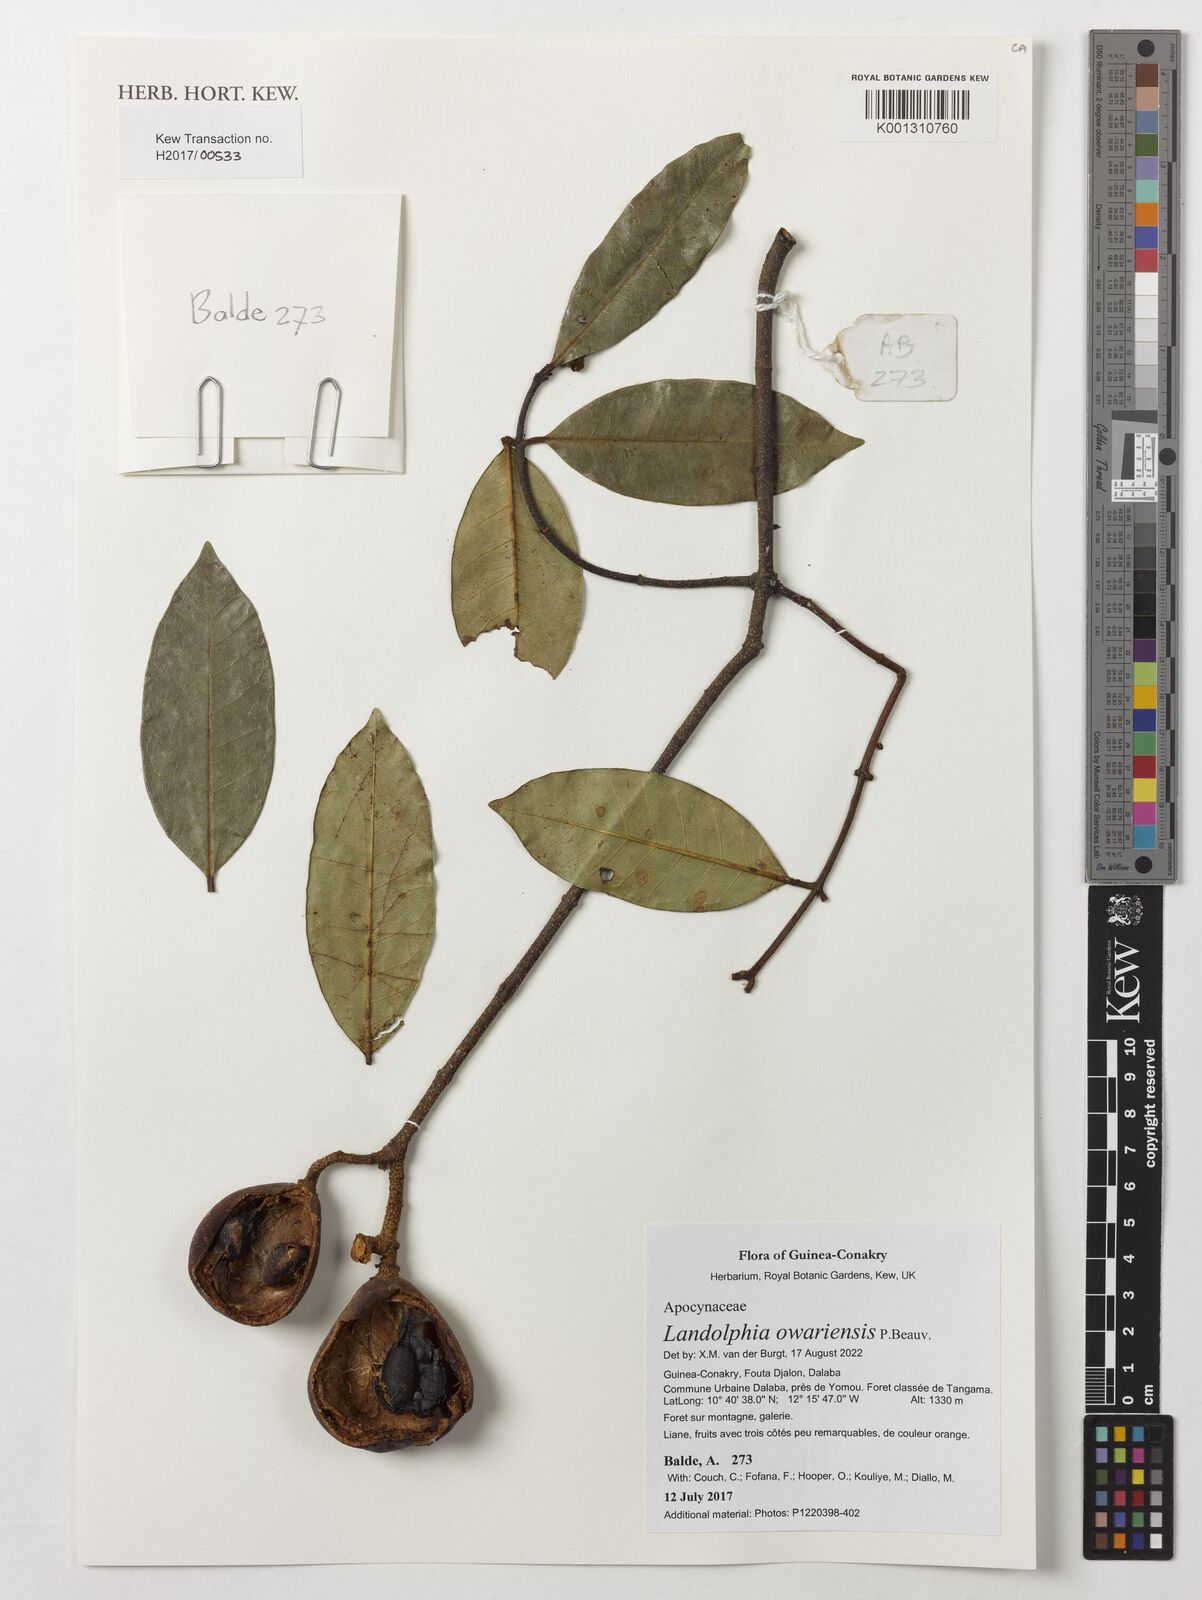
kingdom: Plantae
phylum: Tracheophyta
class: Magnoliopsida
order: Gentianales
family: Apocynaceae
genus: Landolphia
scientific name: Landolphia owariensis
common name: White-ball-rubber
